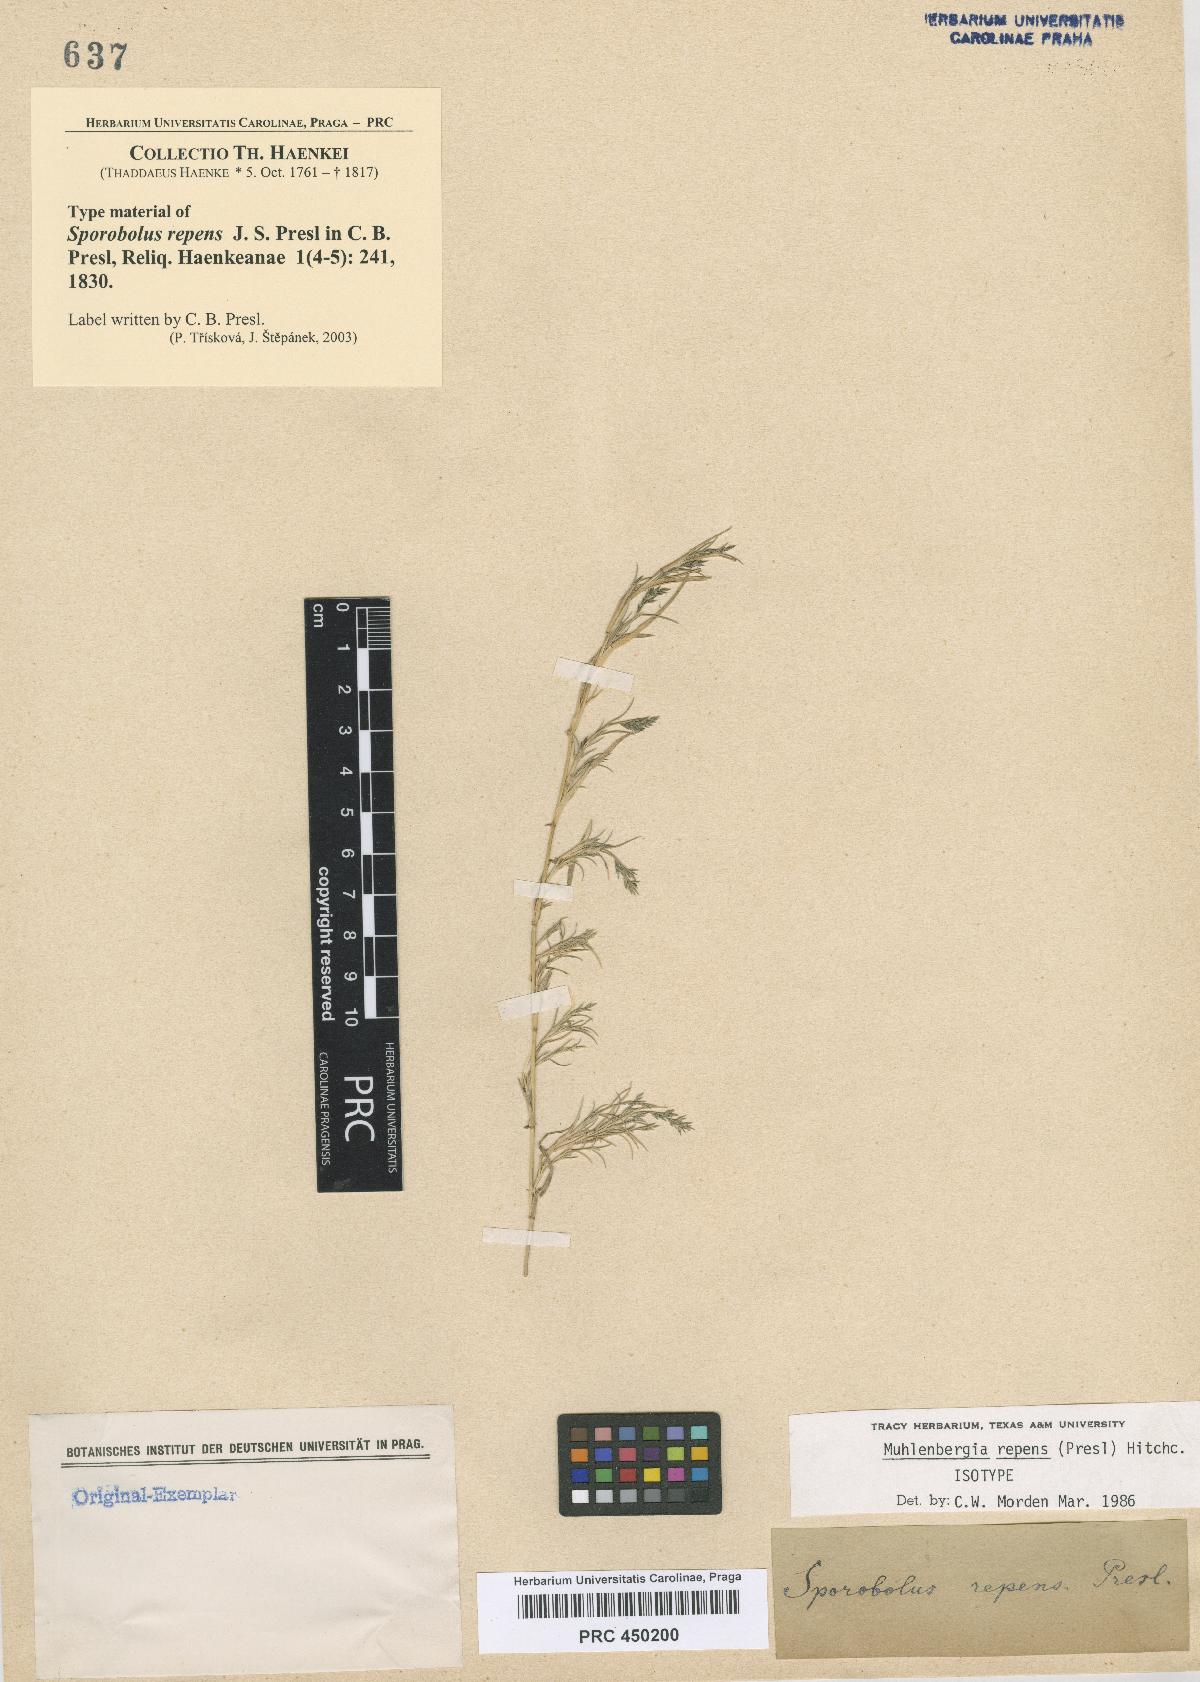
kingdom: Plantae
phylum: Tracheophyta
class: Liliopsida
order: Poales
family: Poaceae
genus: Muhlenbergia
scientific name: Muhlenbergia repens
